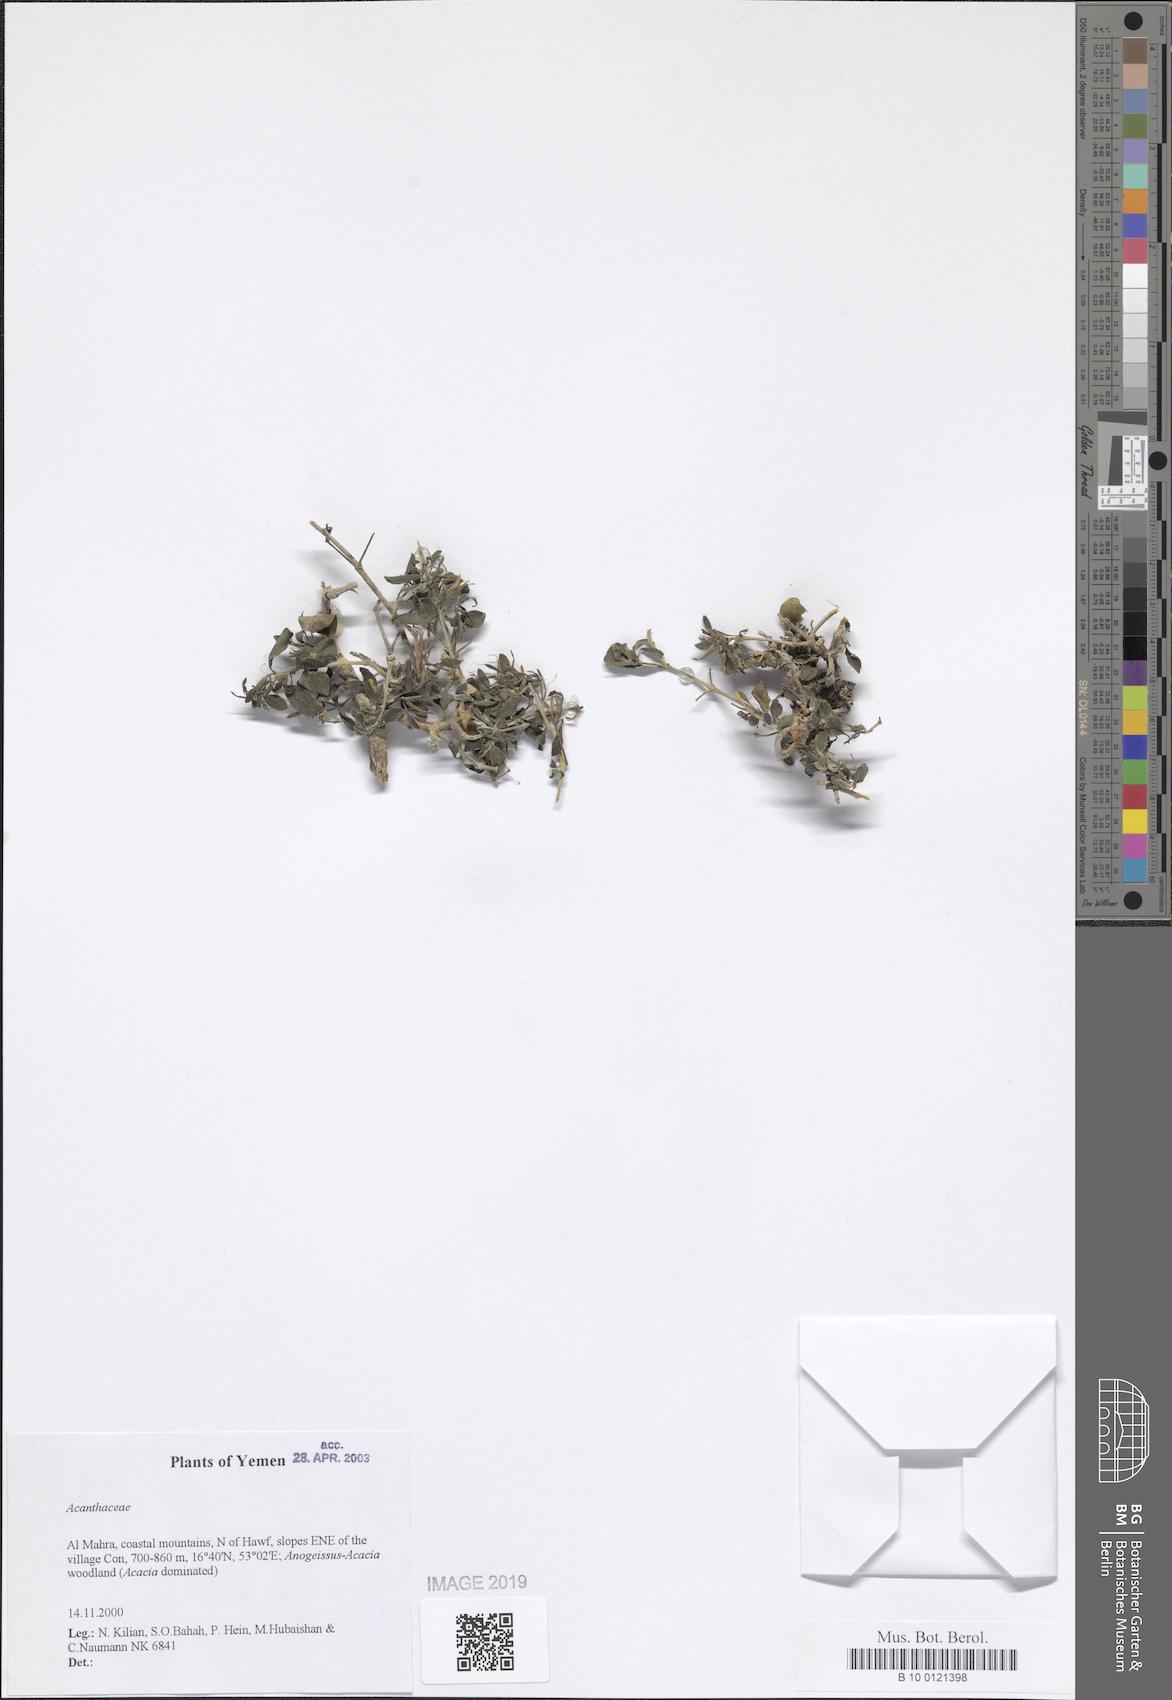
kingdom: Plantae
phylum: Tracheophyta
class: Magnoliopsida
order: Lamiales
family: Acanthaceae
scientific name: Acanthaceae
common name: Acanthaceae
